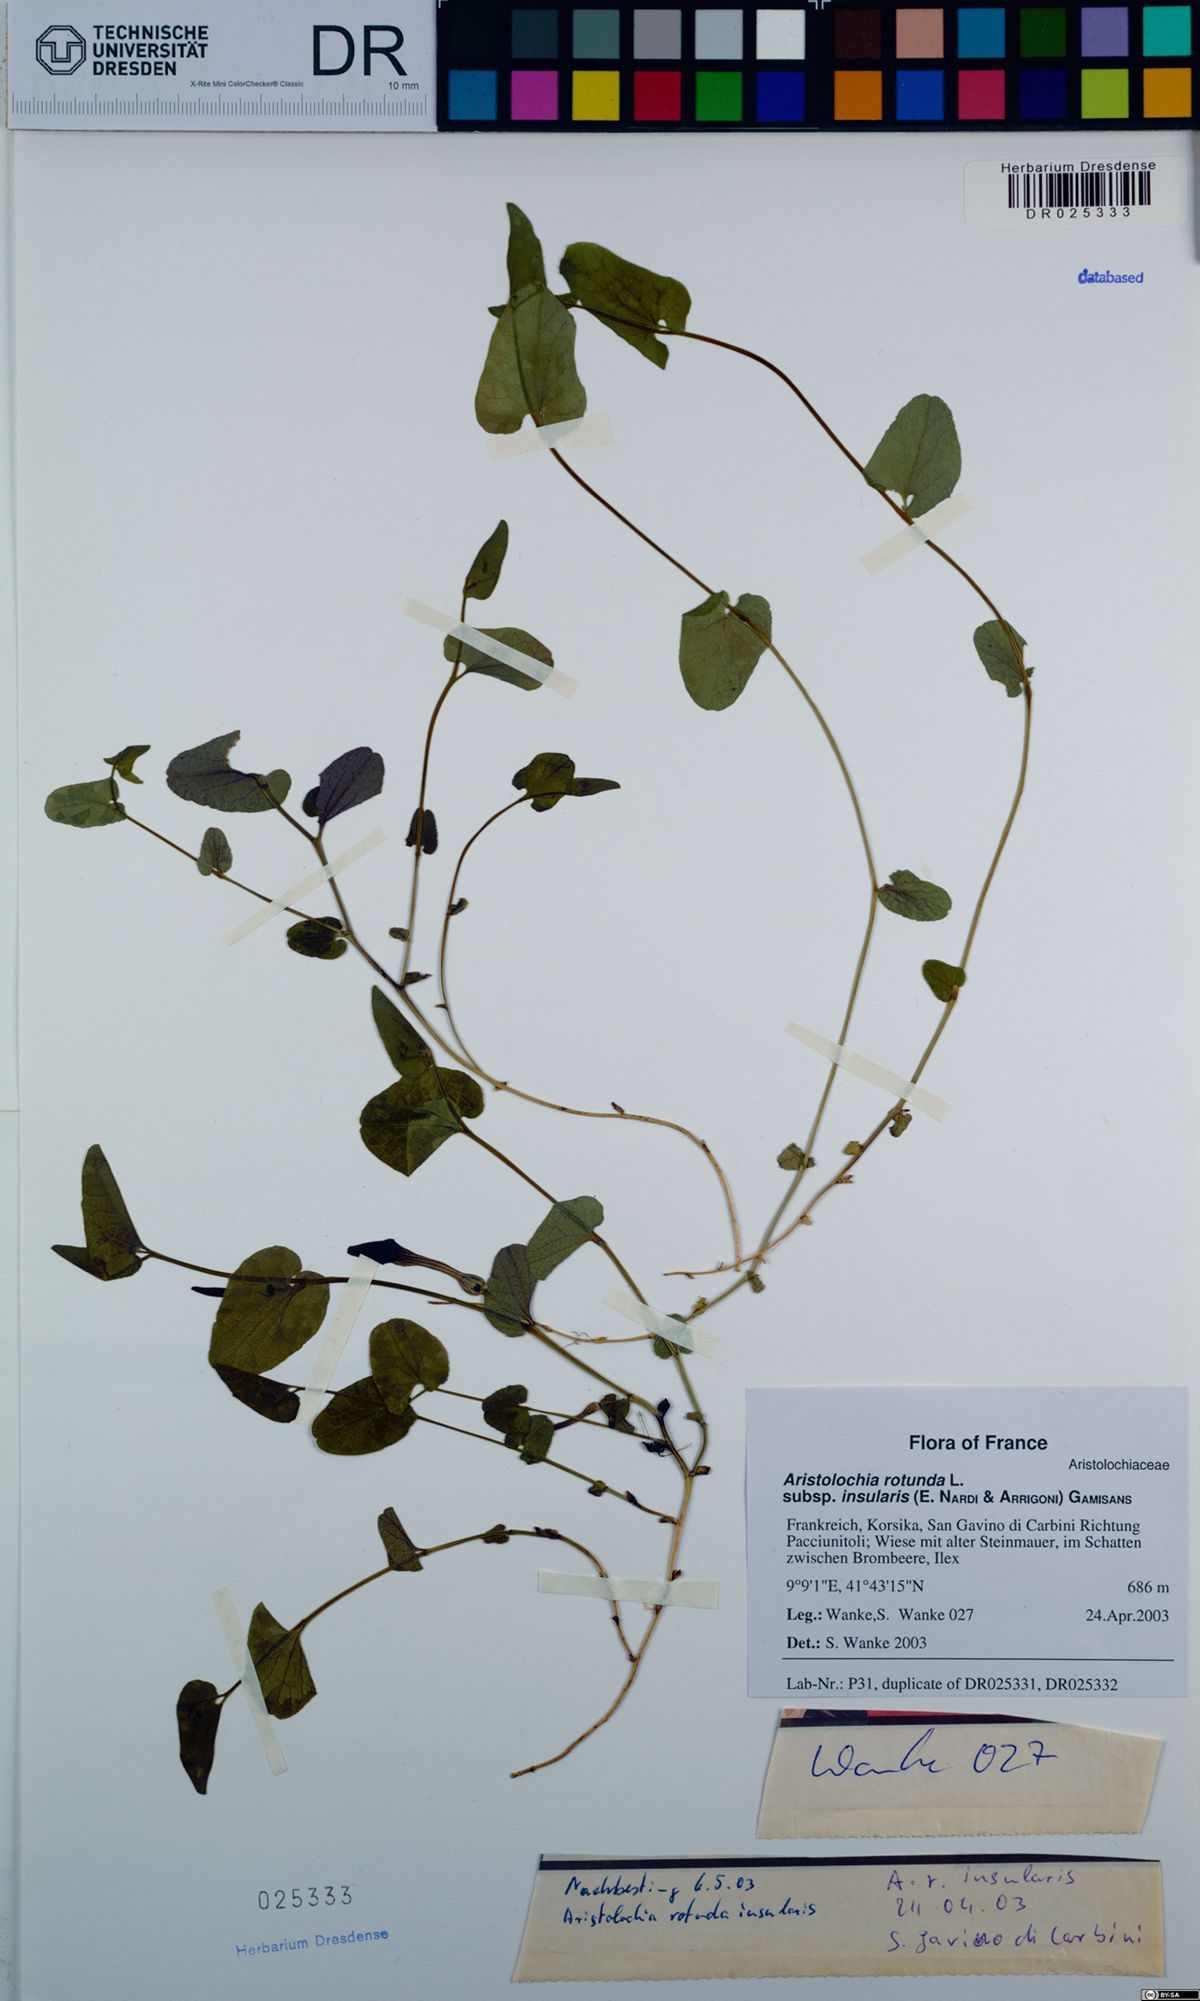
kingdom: Plantae
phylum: Tracheophyta
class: Magnoliopsida
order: Piperales
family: Aristolochiaceae
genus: Aristolochia
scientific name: Aristolochia rotunda
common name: Smearwort
